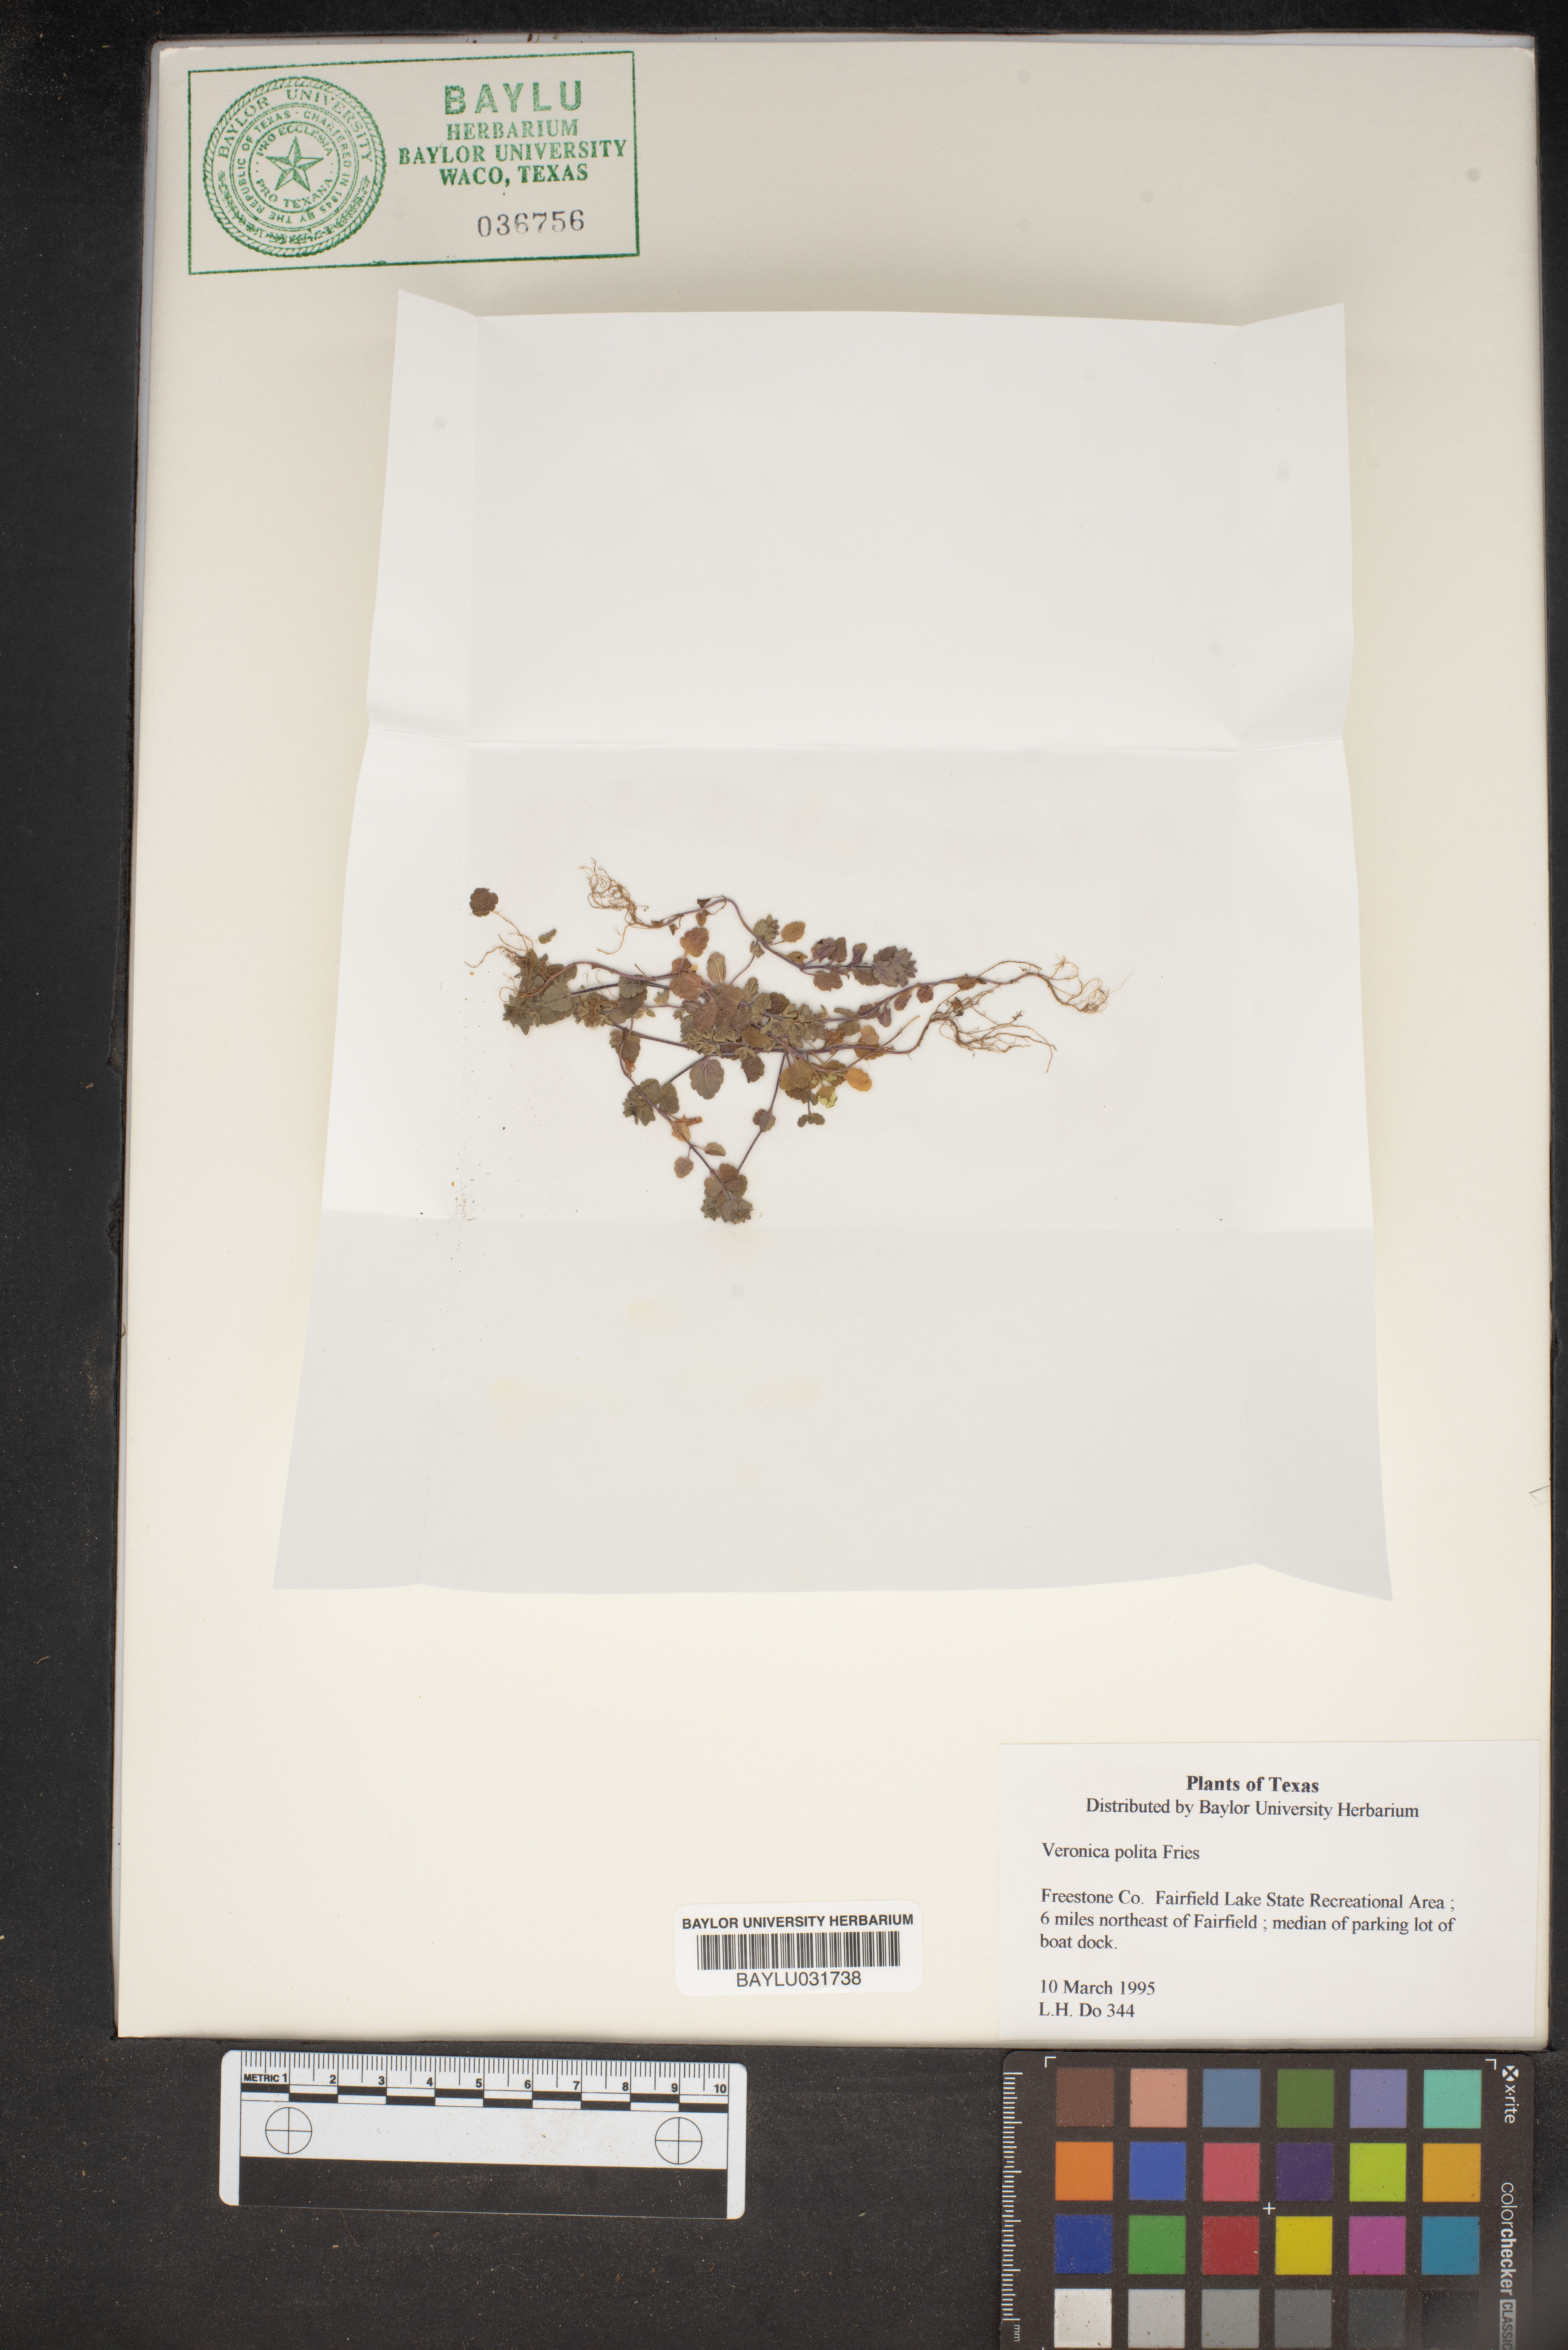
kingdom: Plantae
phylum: Tracheophyta
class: Magnoliopsida
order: Lamiales
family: Plantaginaceae
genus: Veronica
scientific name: Veronica polita
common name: Grey field-speedwell
